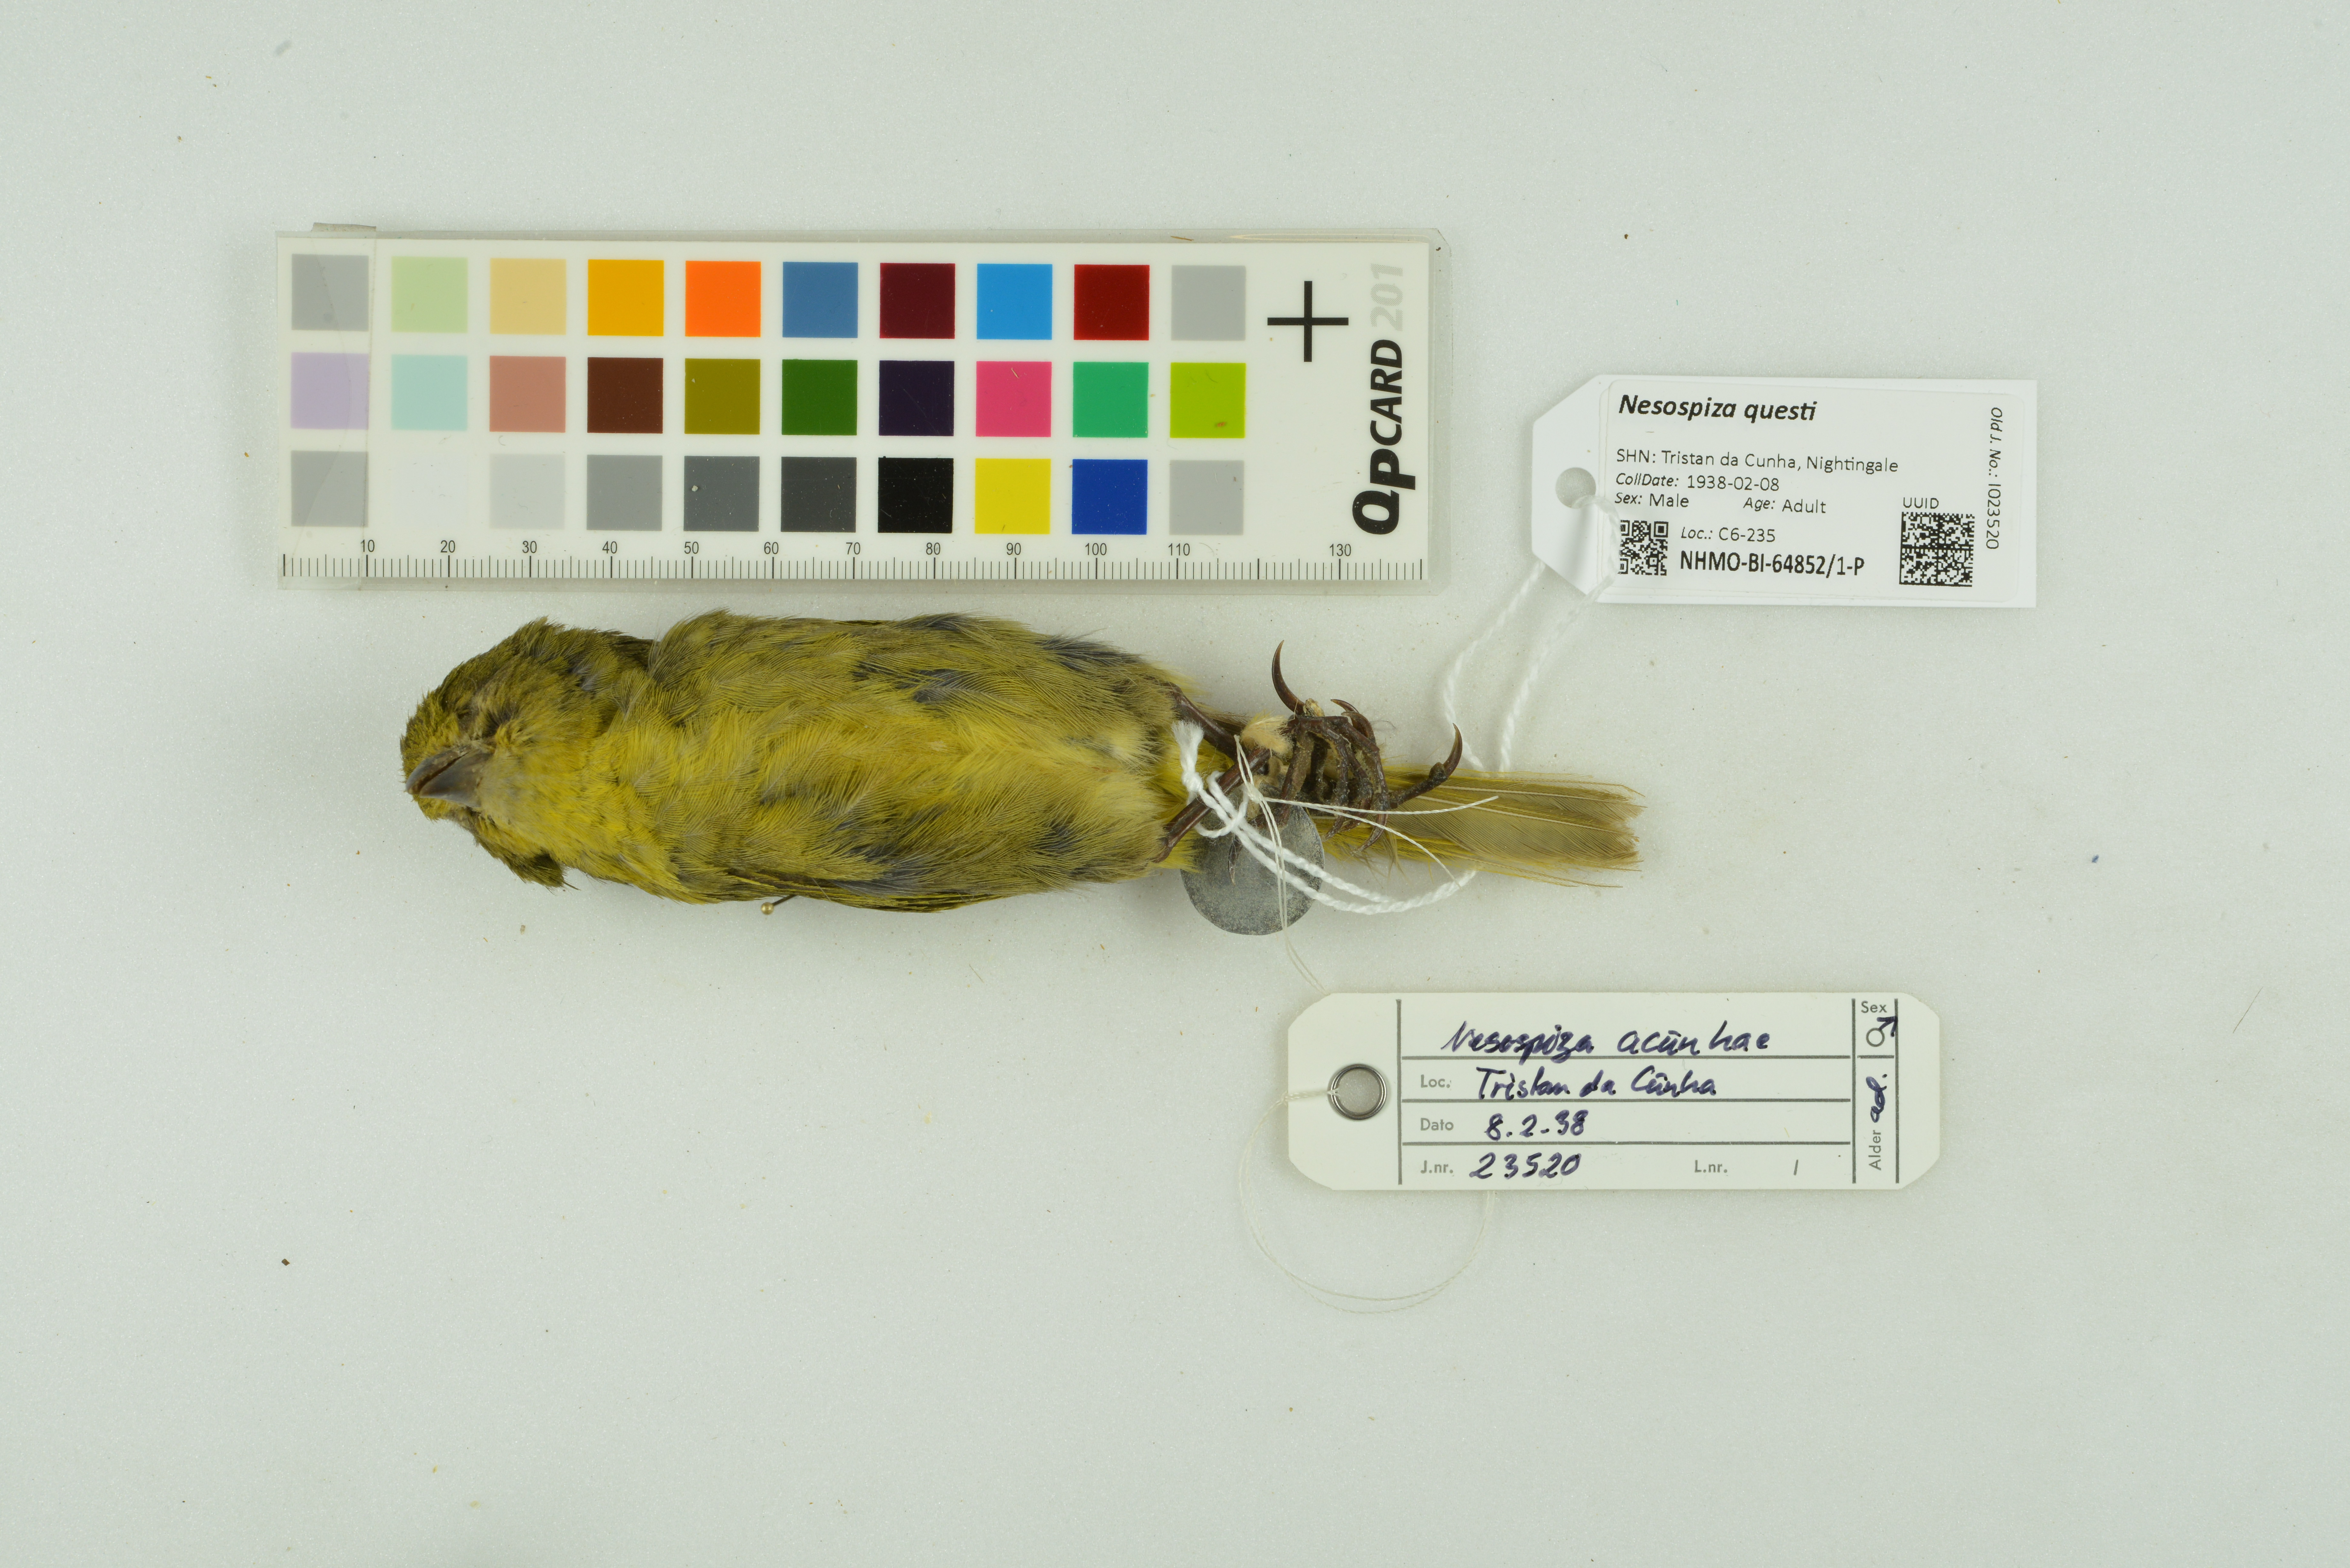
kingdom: Animalia
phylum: Chordata
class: Aves
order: Passeriformes
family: Thraupidae
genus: Nesospiza
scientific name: Nesospiza questi
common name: Nightingale island finch
